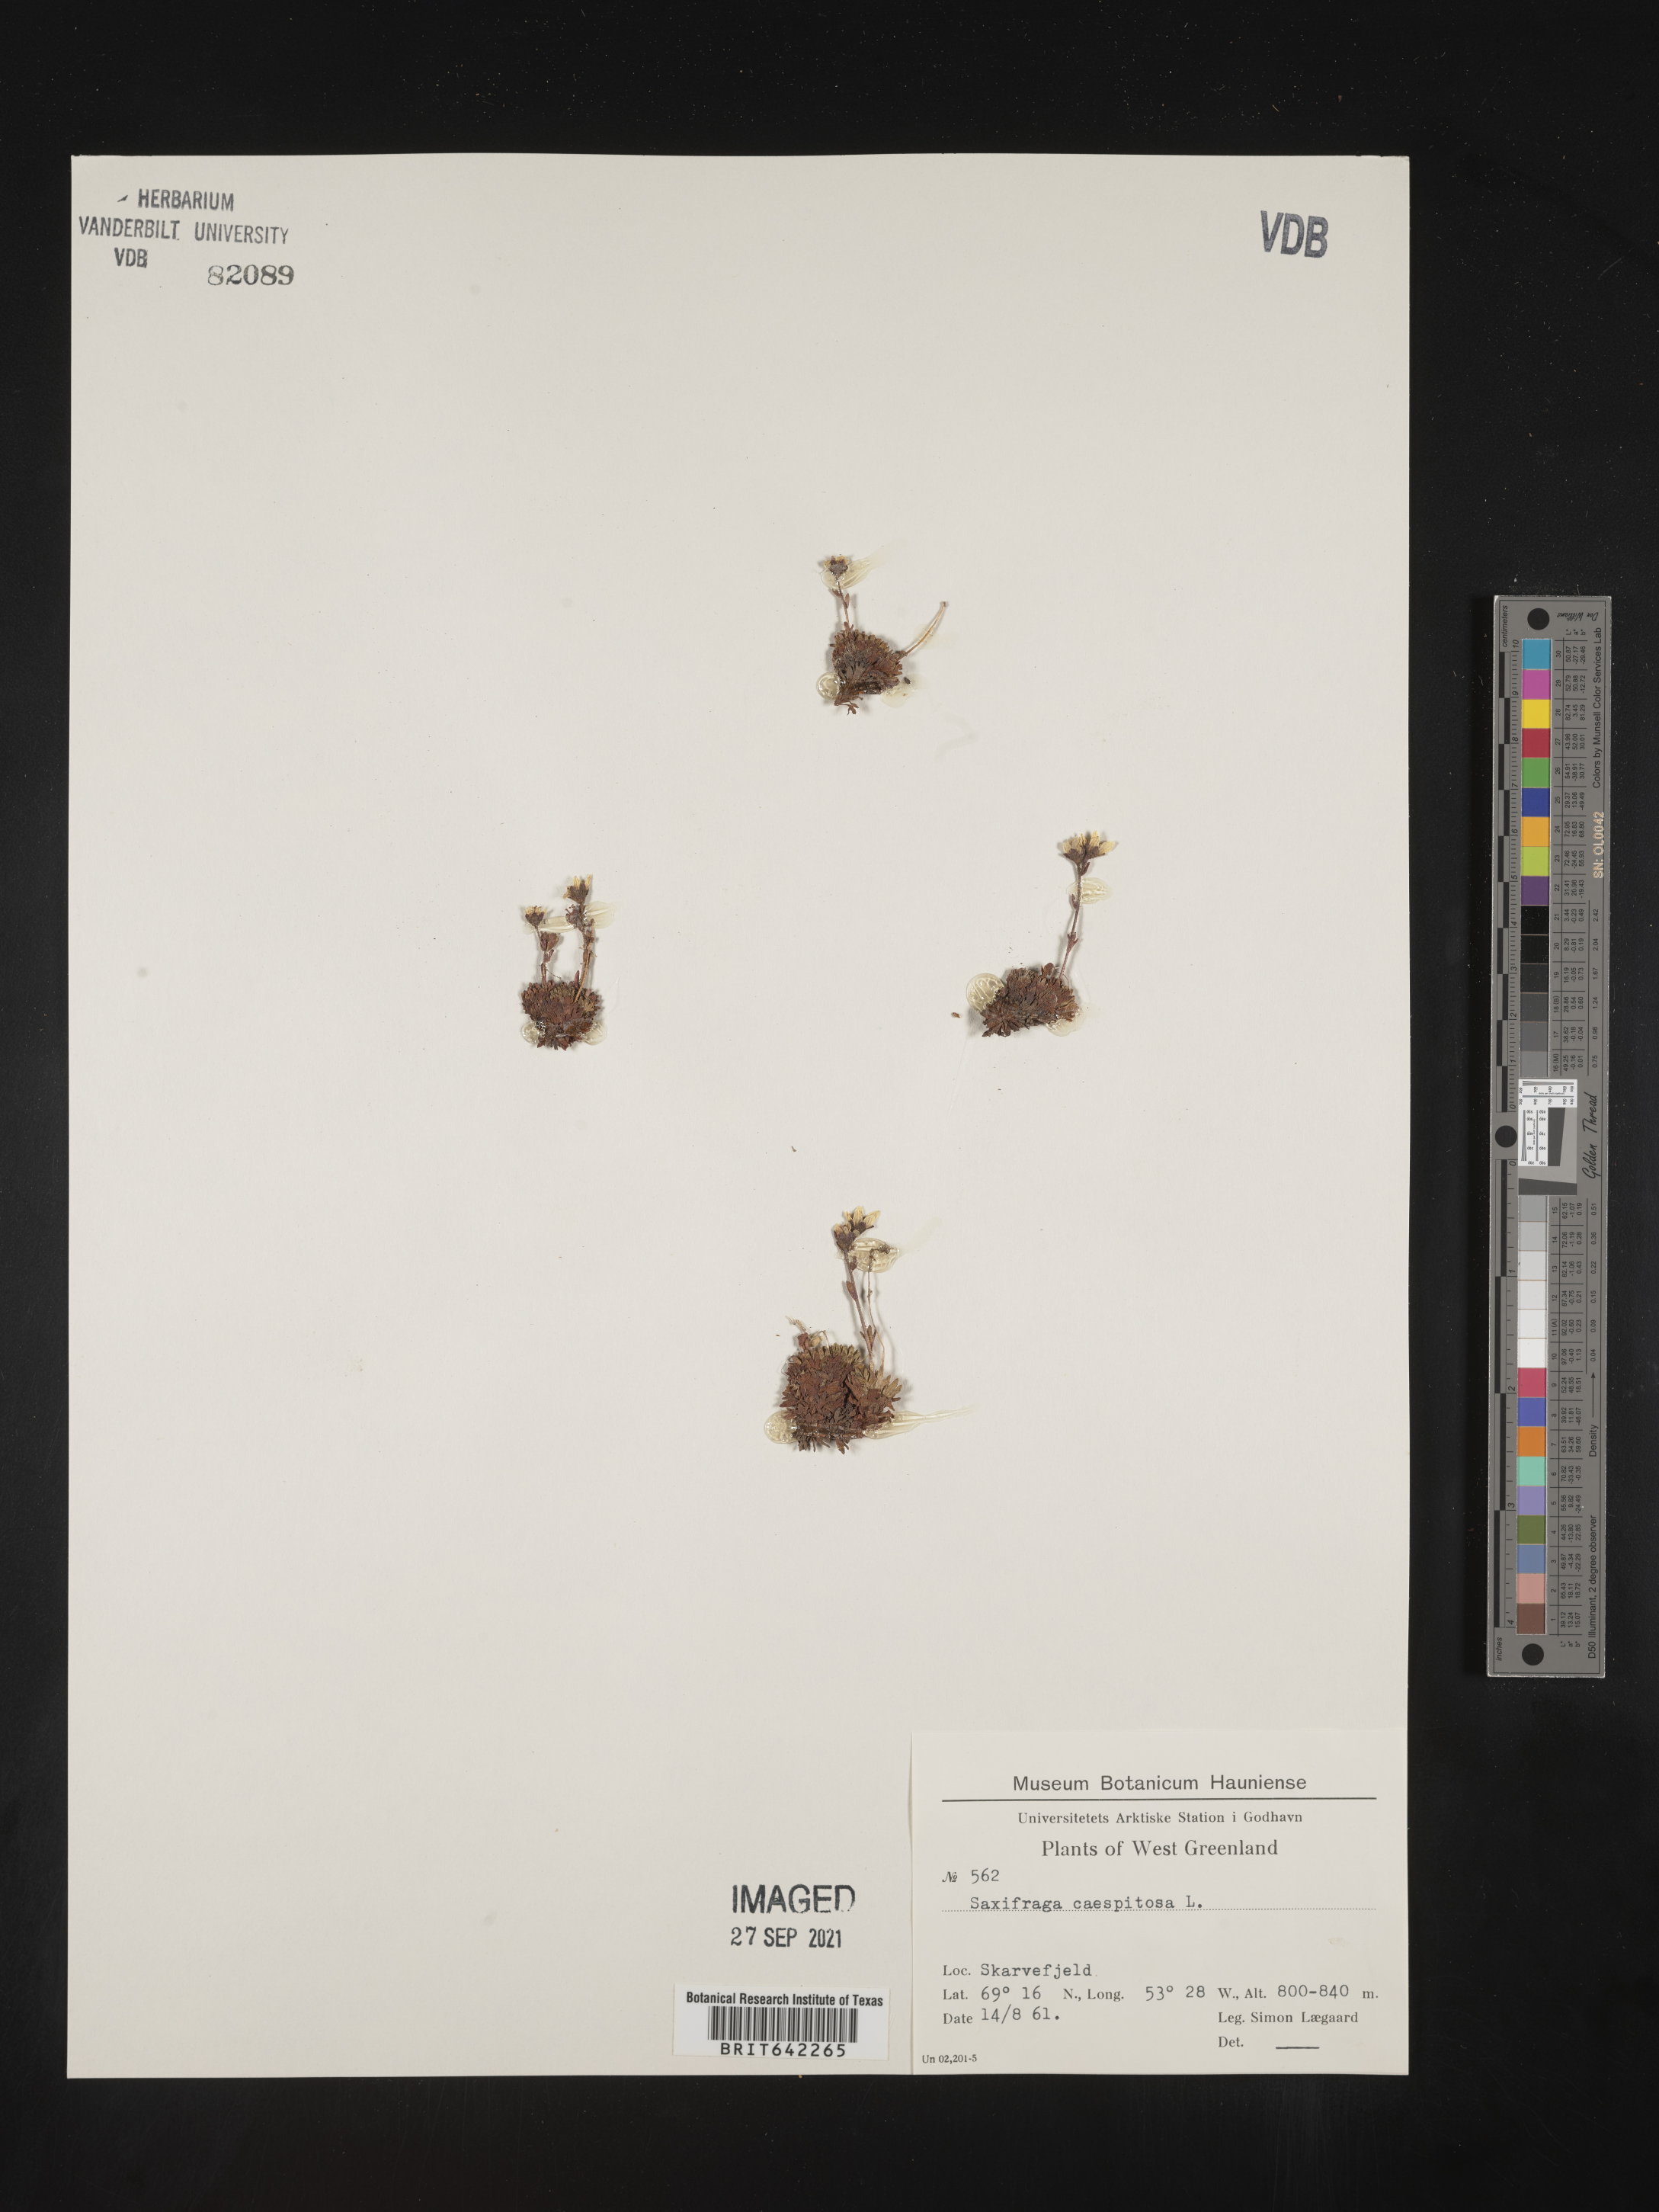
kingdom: Plantae
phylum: Tracheophyta
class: Magnoliopsida
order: Saxifragales
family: Saxifragaceae
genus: Saxifraga
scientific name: Saxifraga
